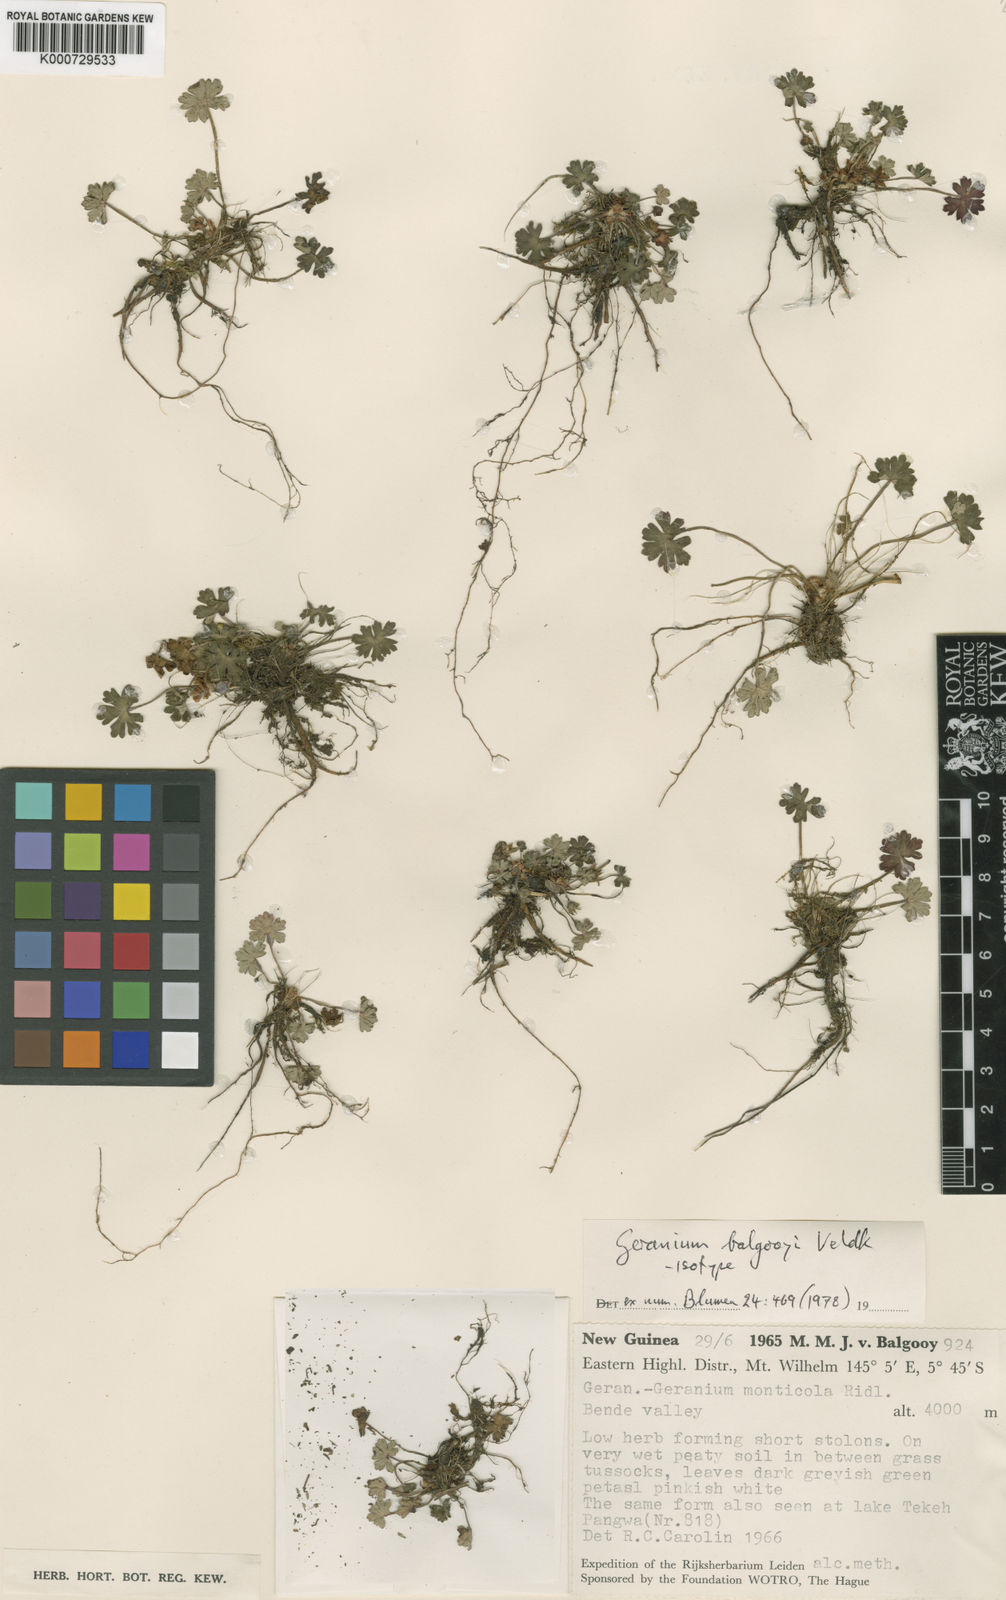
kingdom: Plantae
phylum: Tracheophyta
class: Magnoliopsida
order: Geraniales
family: Geraniaceae
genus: Geranium
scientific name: Geranium balgooyi
